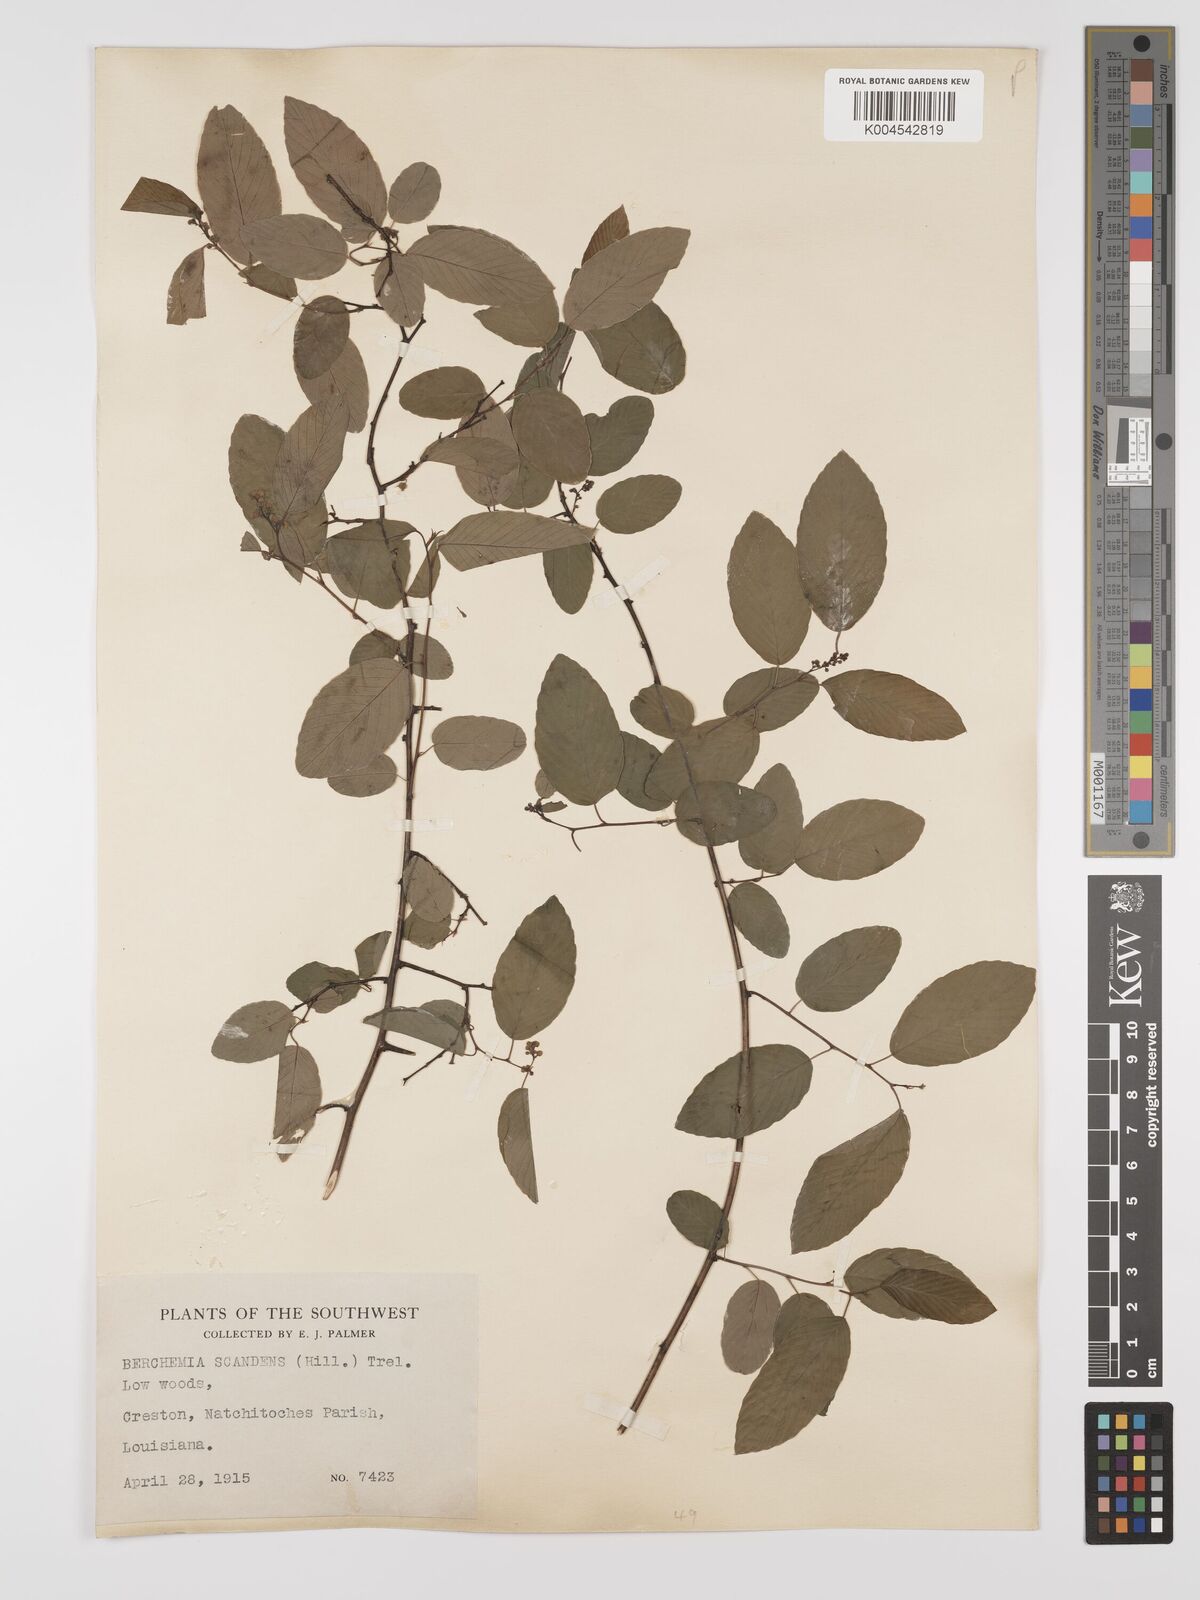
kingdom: Plantae
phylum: Tracheophyta
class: Magnoliopsida
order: Rosales
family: Rhamnaceae
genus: Berchemia
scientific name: Berchemia scandens
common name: Supplejack
